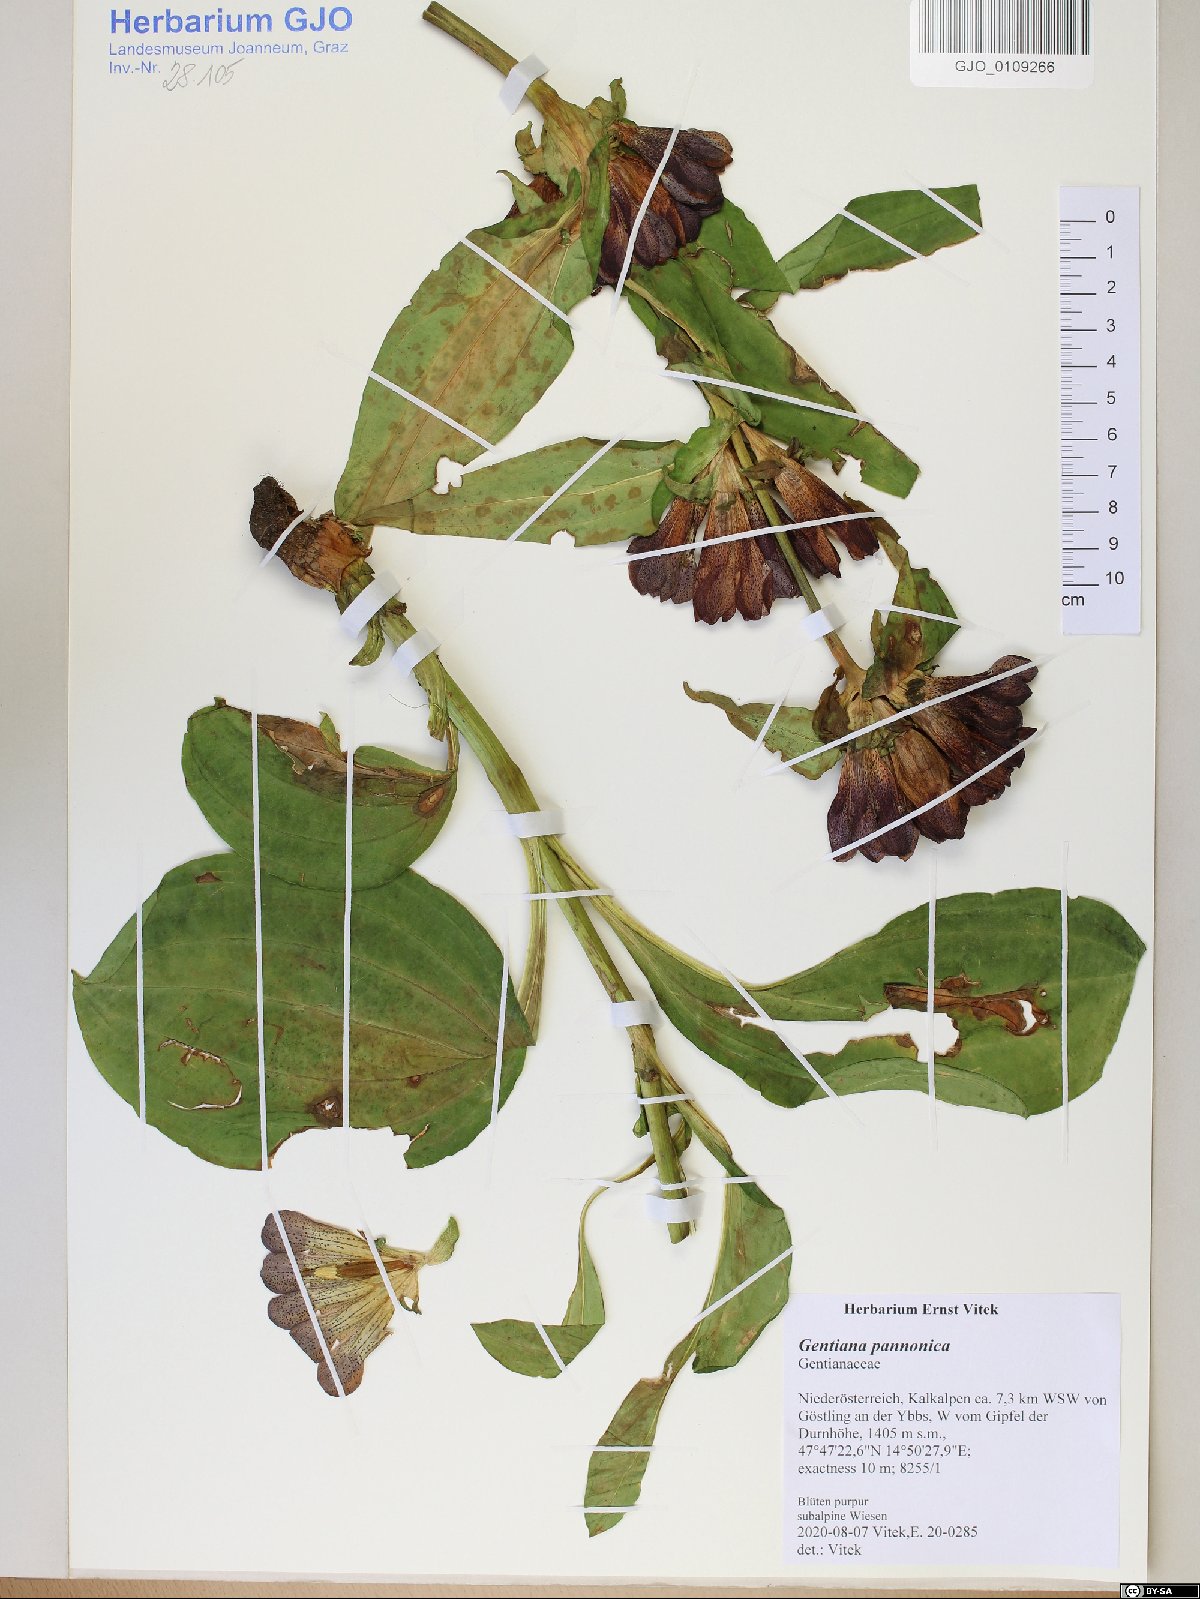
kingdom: Plantae
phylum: Tracheophyta
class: Magnoliopsida
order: Gentianales
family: Gentianaceae
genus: Gentiana
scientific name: Gentiana pannonica
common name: Hungarian gentian
